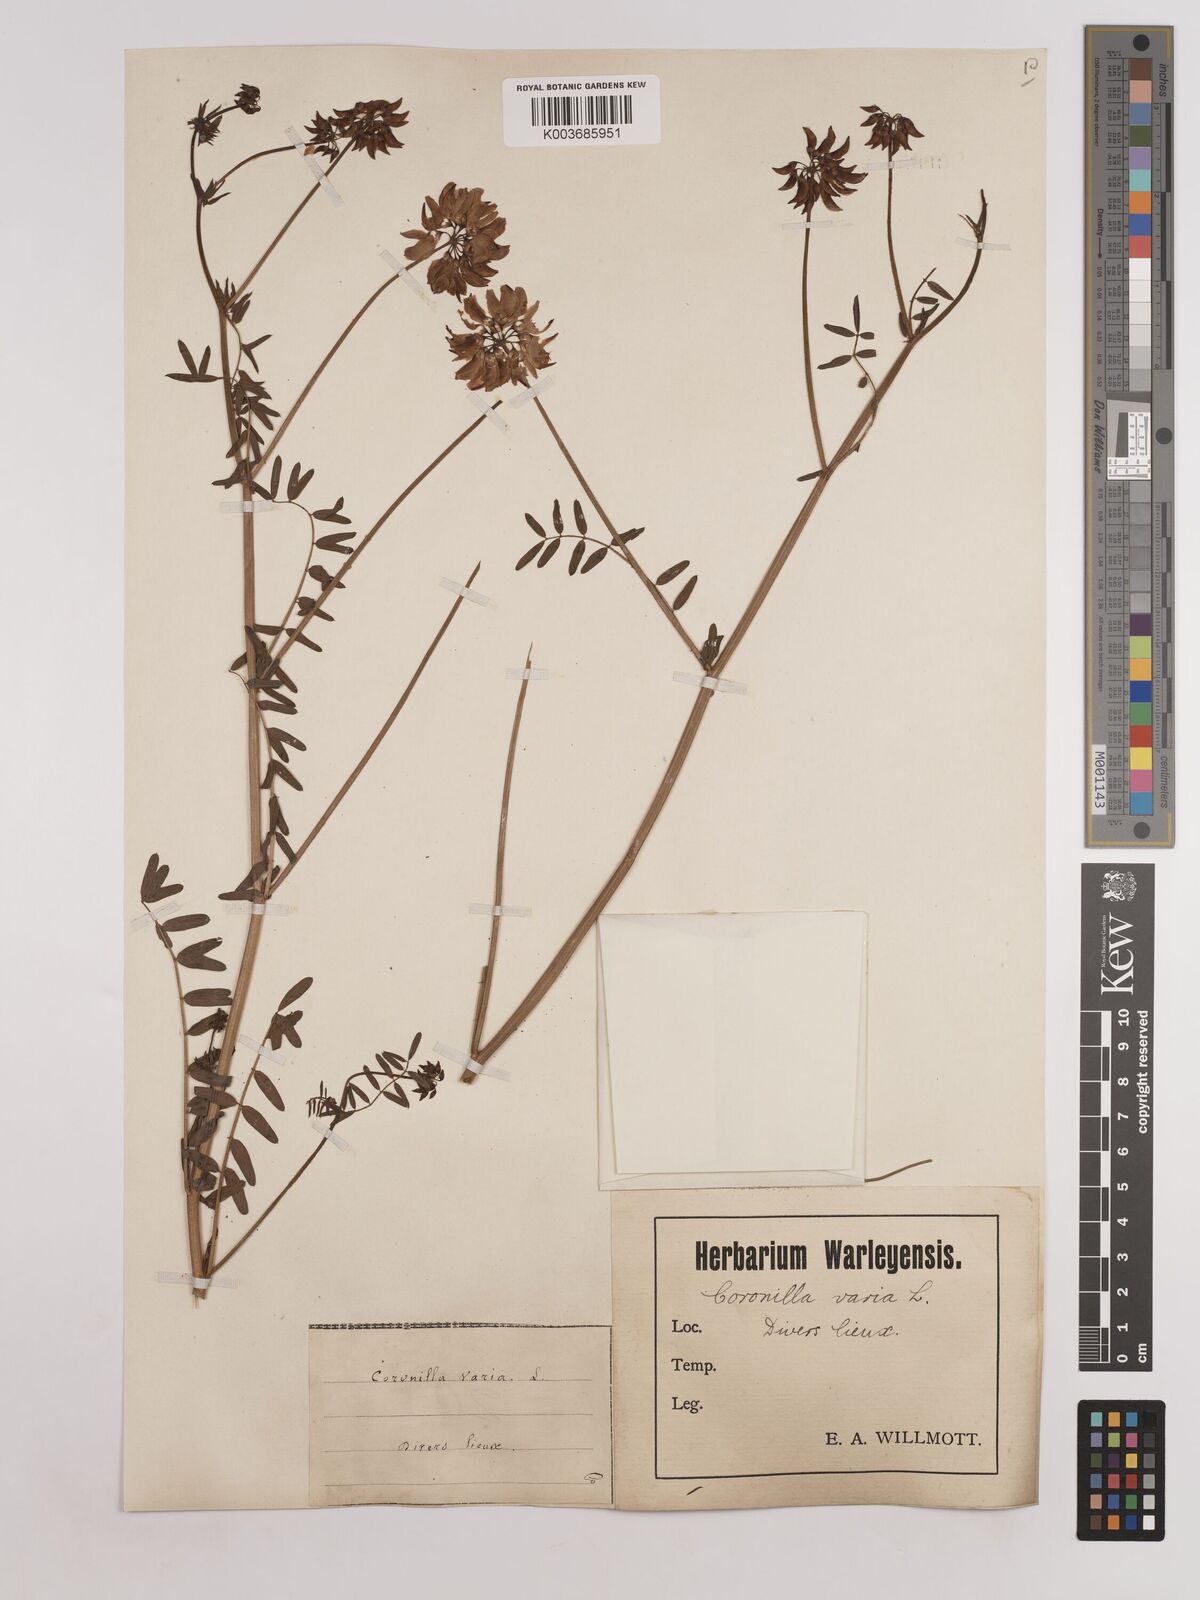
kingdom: Plantae
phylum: Tracheophyta
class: Magnoliopsida
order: Fabales
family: Fabaceae
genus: Coronilla
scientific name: Coronilla varia
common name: Crownvetch
